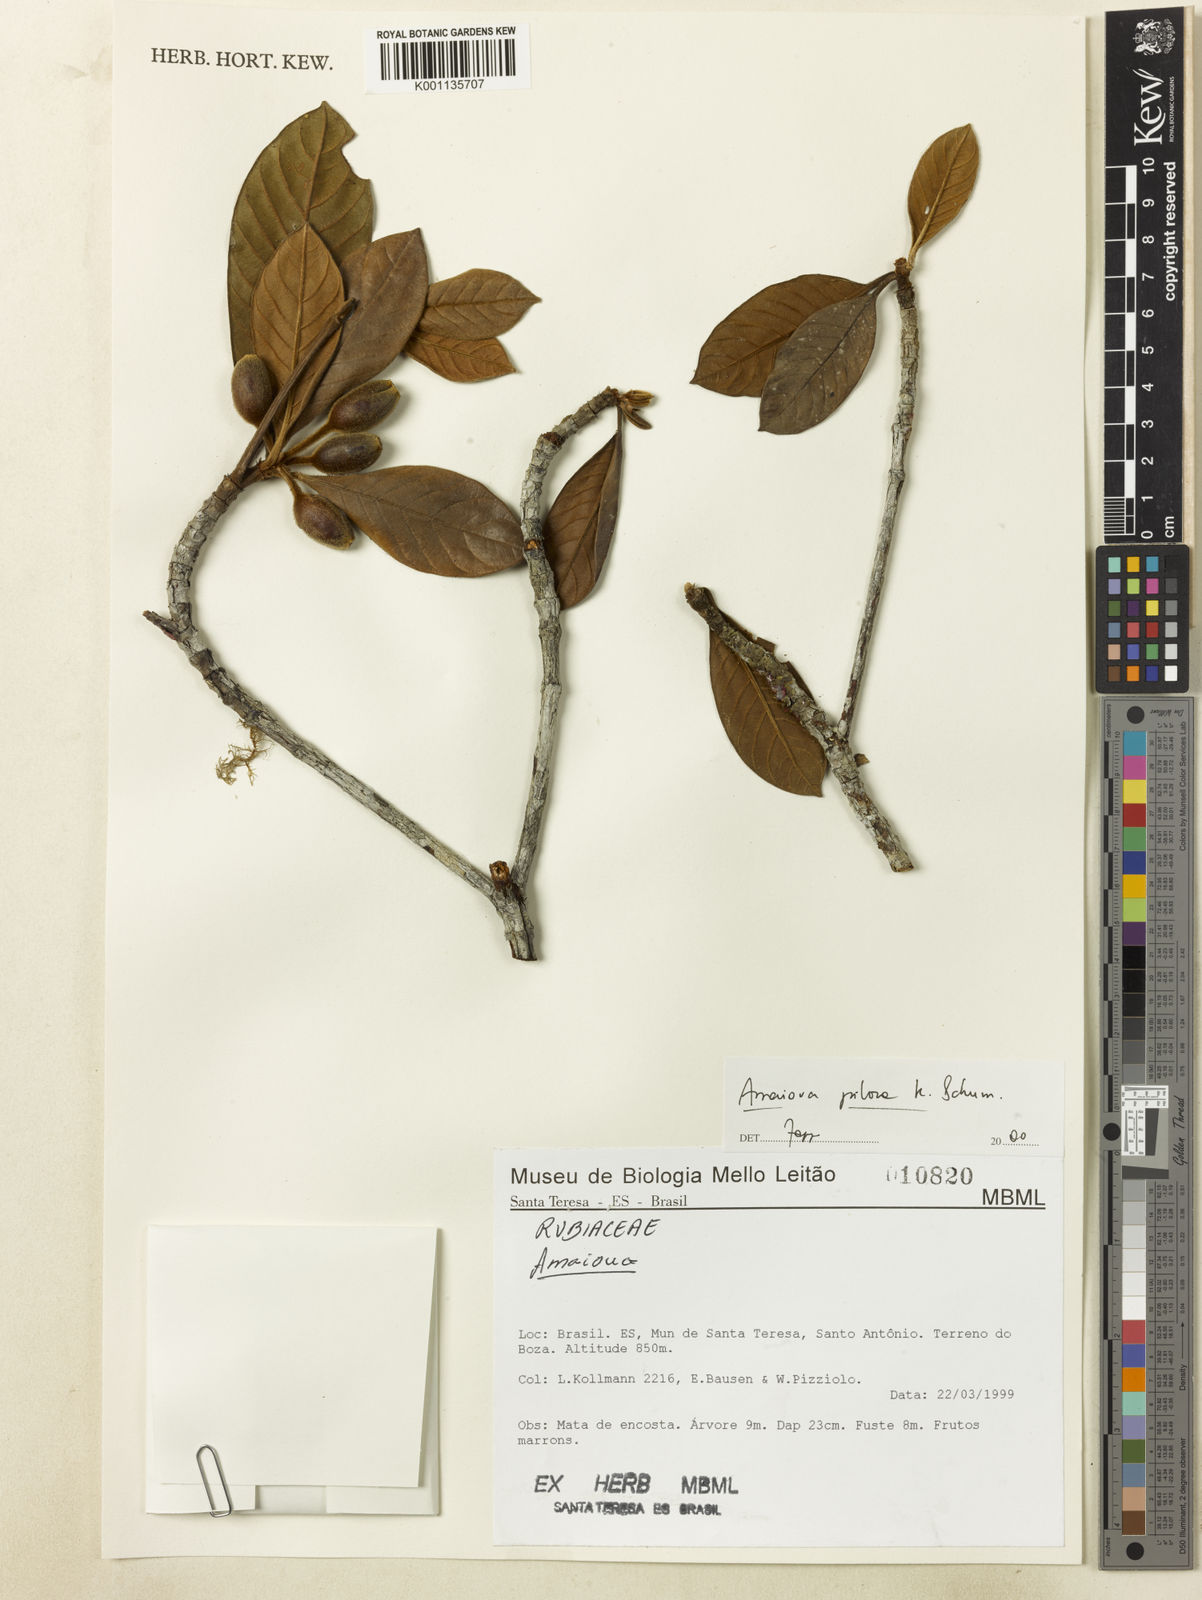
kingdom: Plantae
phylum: Tracheophyta
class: Magnoliopsida
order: Gentianales
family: Rubiaceae
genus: Amaioua
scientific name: Amaioua pilosa
